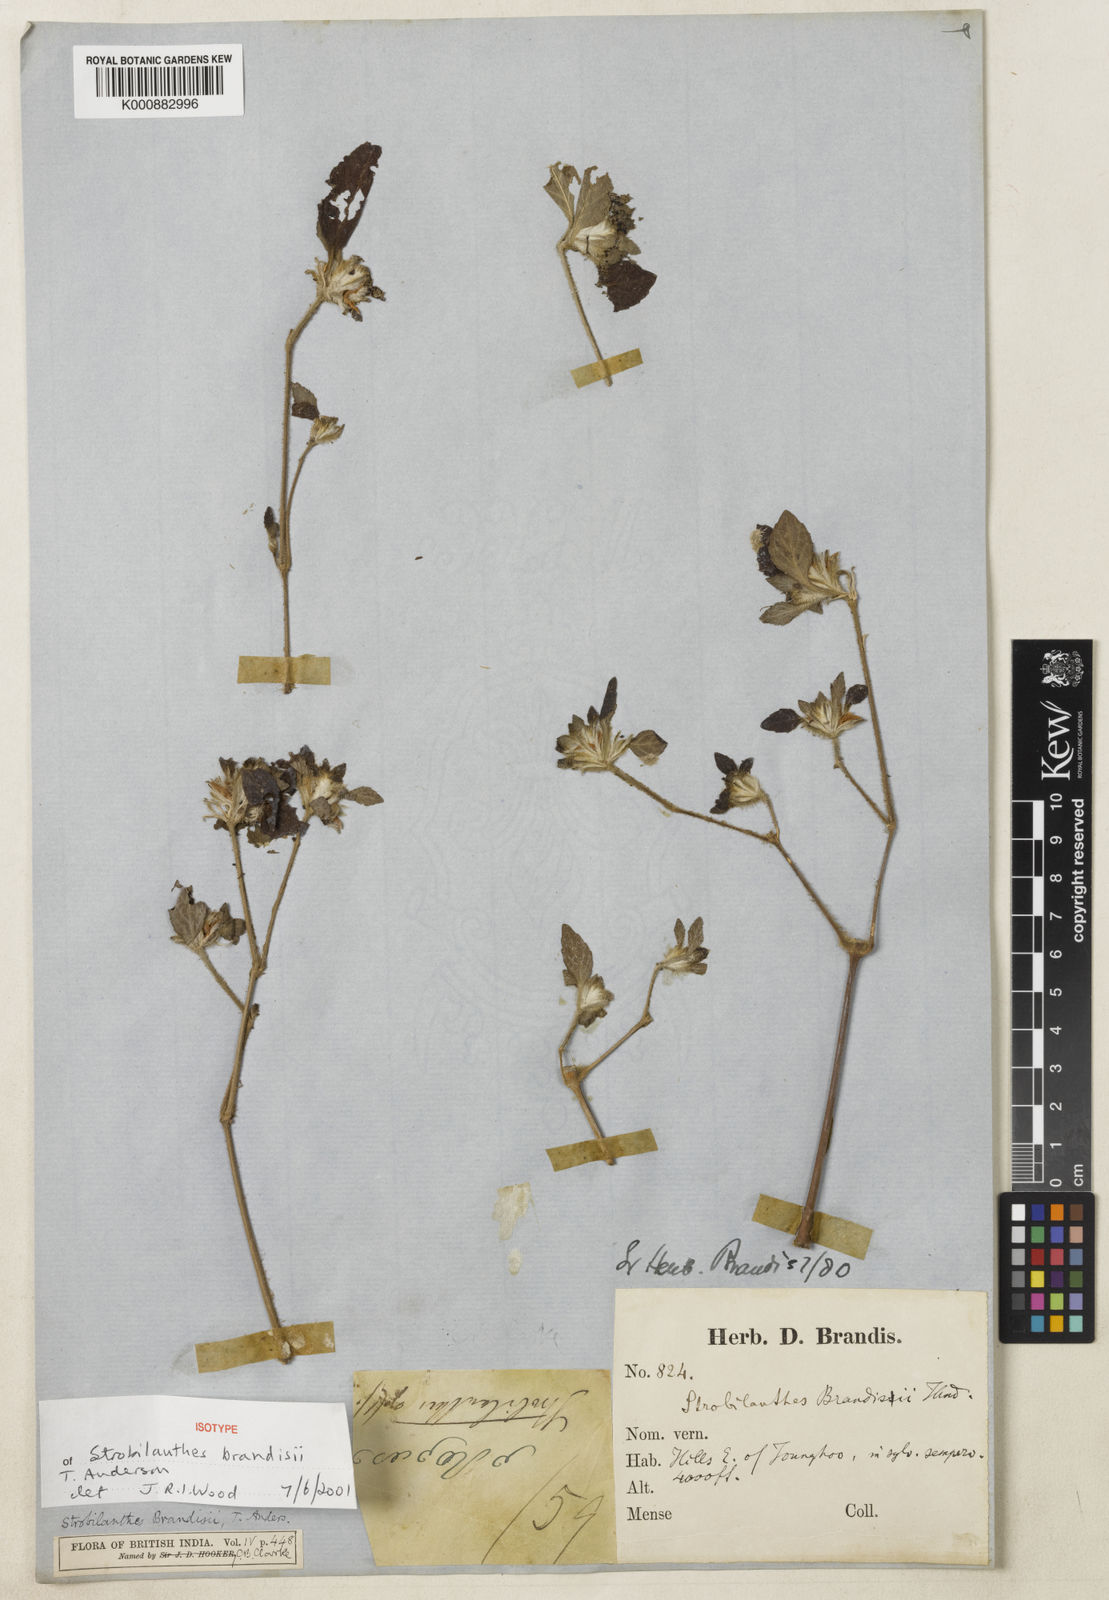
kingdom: Plantae
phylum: Tracheophyta
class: Magnoliopsida
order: Lamiales
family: Acanthaceae
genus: Strobilanthes
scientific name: Strobilanthes brandisii
